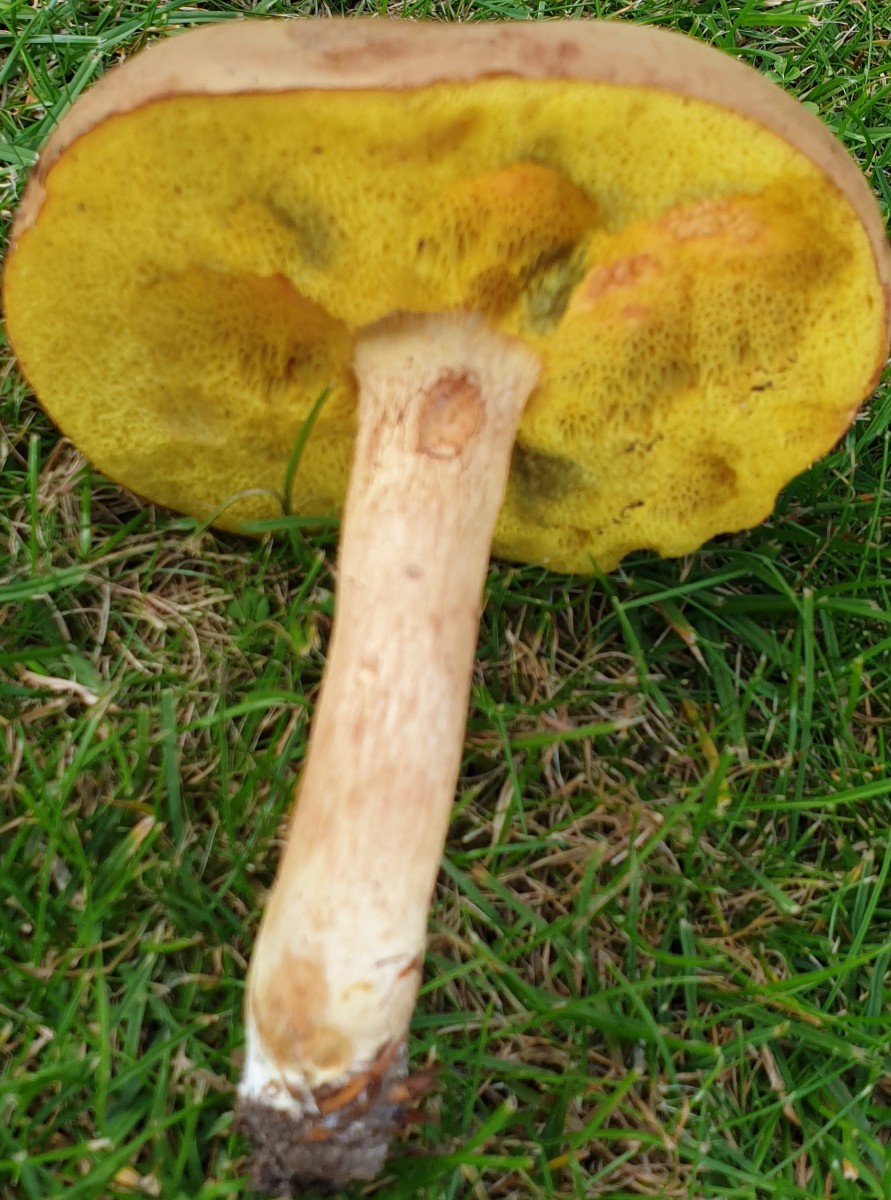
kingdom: Fungi
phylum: Basidiomycota
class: Agaricomycetes
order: Boletales
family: Boletaceae
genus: Xerocomus
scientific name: Xerocomus ferrugineus
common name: vaskeskinds-rørhat
